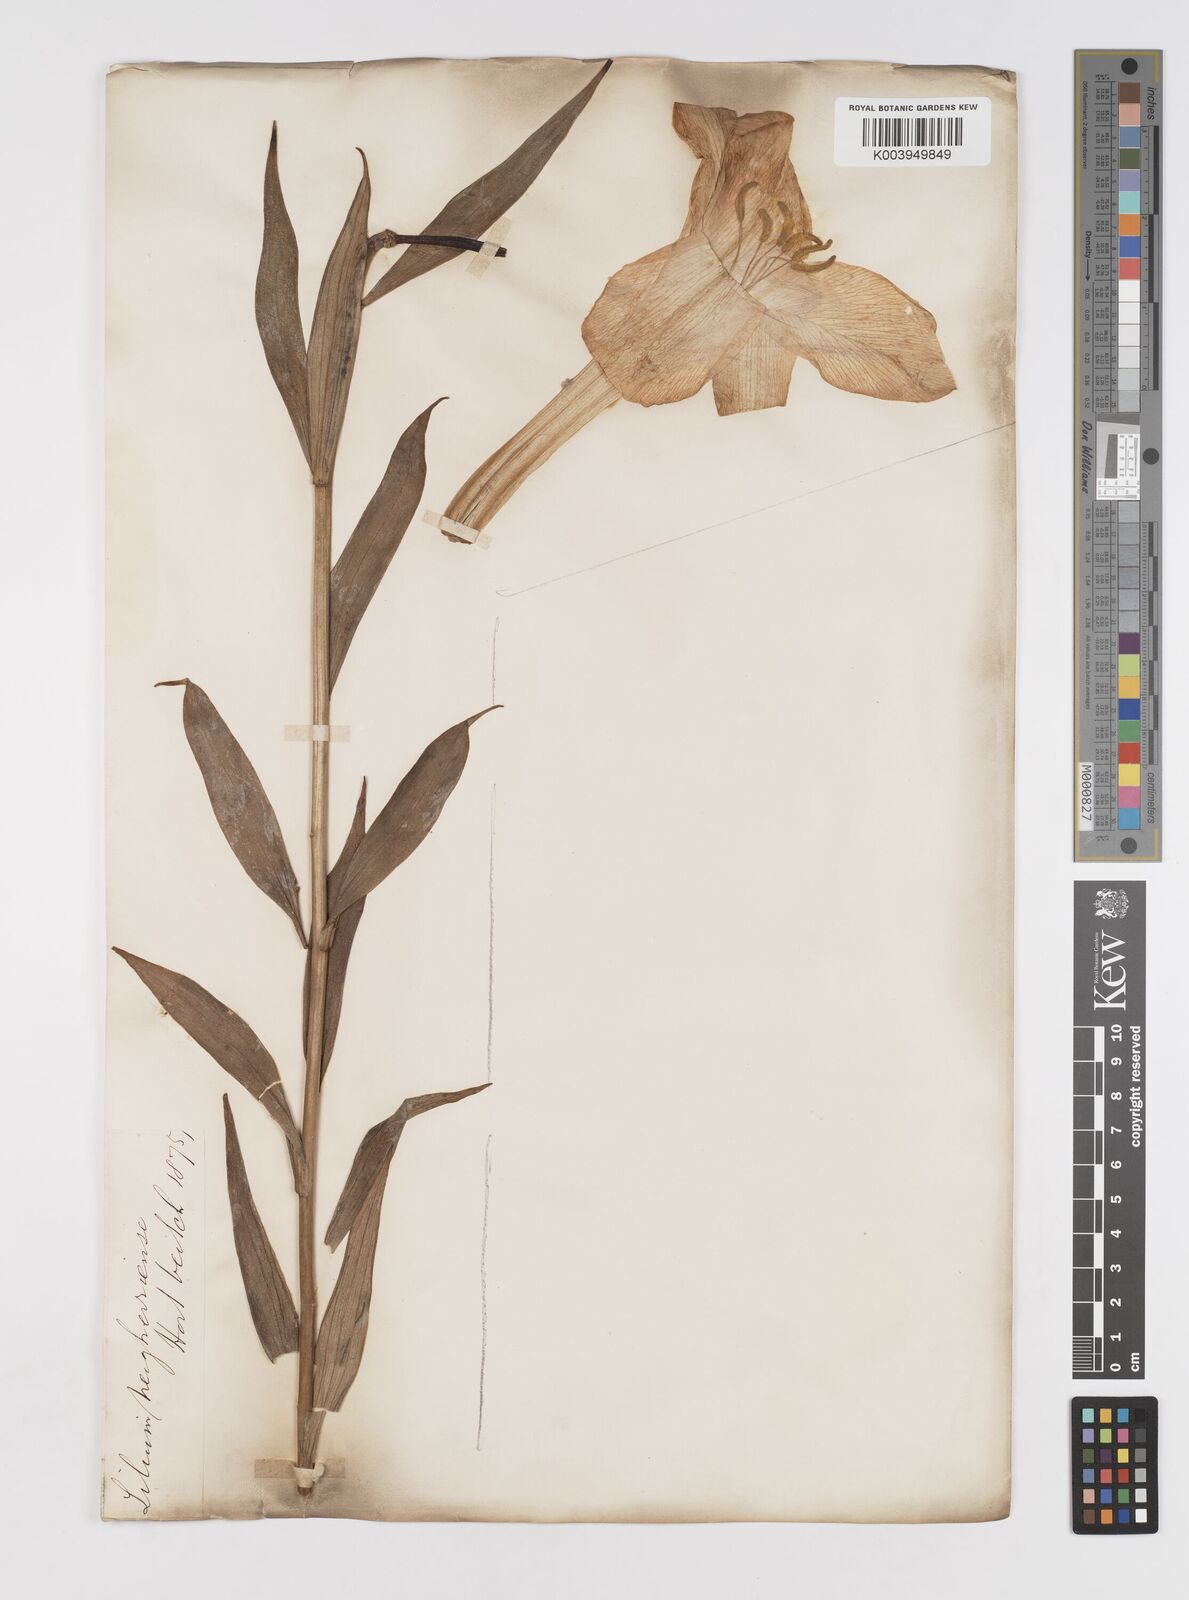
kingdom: Plantae
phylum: Tracheophyta
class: Liliopsida
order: Liliales
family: Liliaceae
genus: Lilium
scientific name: Lilium wallichianum
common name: Wallich's lily
